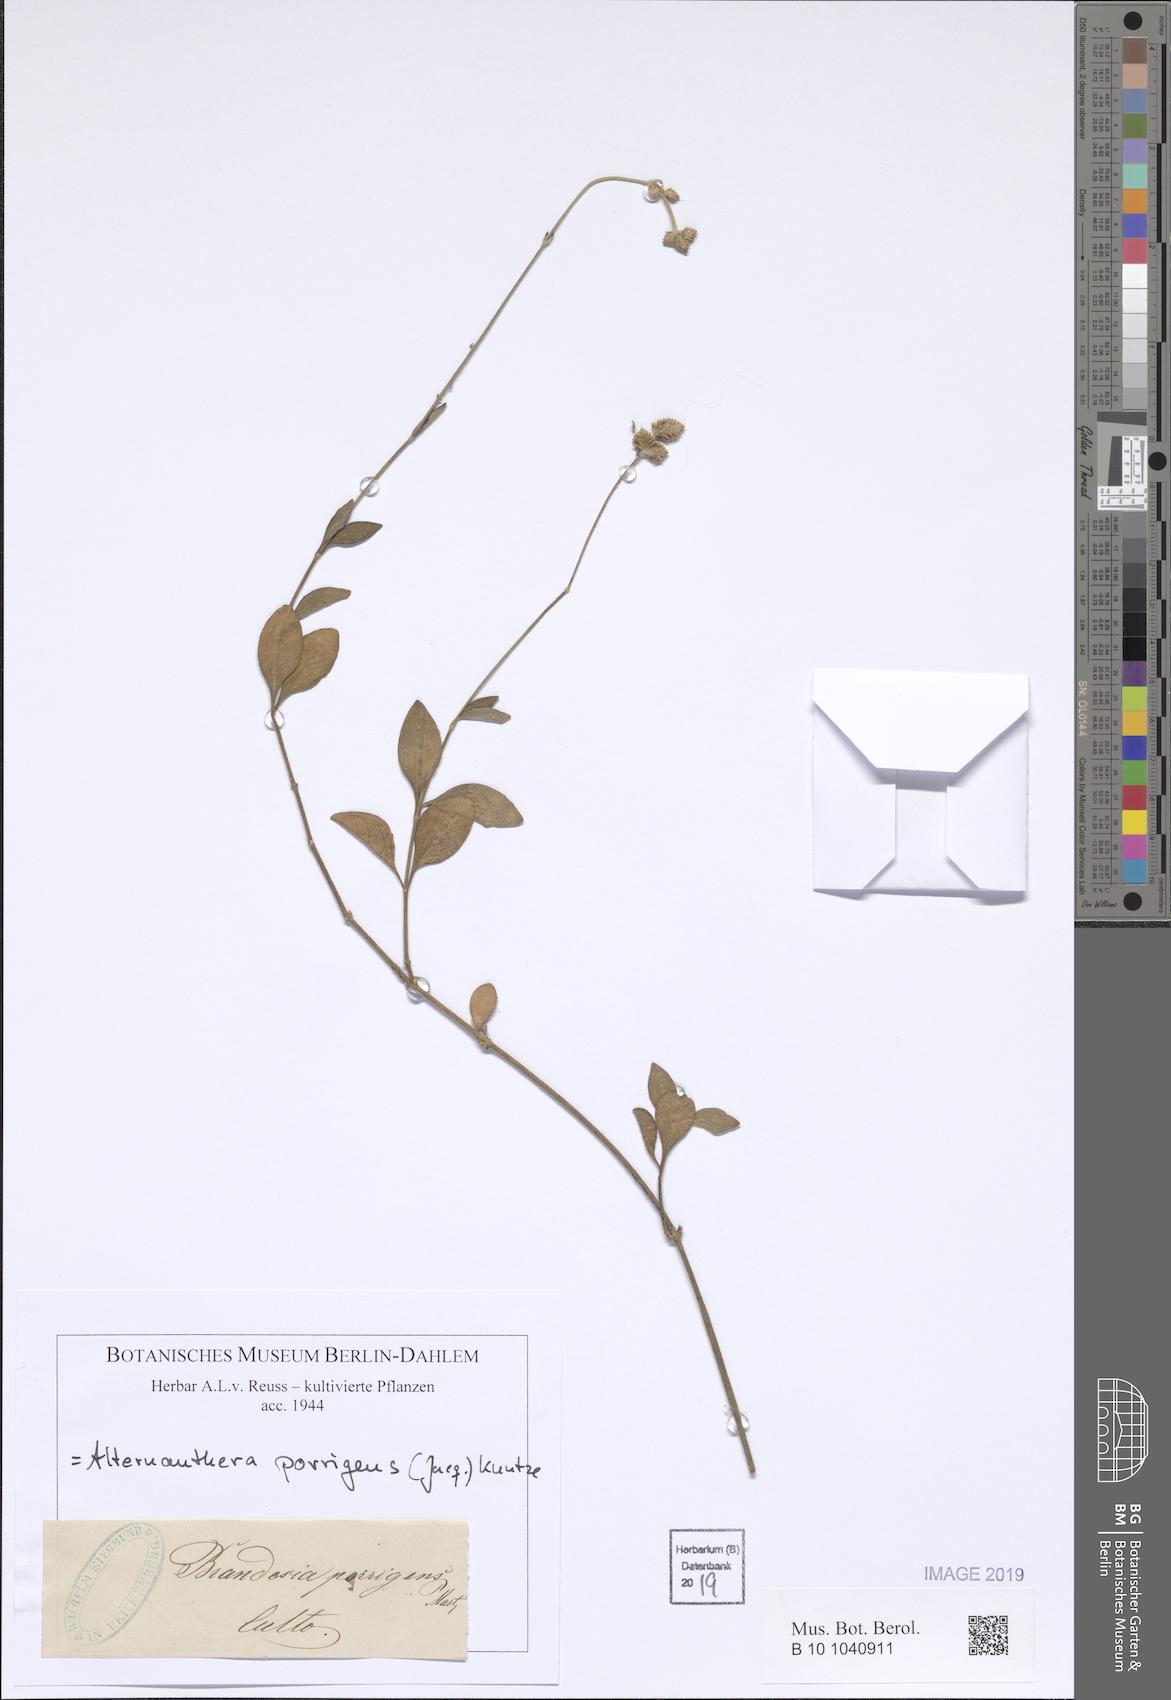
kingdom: Plantae
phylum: Tracheophyta
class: Magnoliopsida
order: Caryophyllales
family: Amaranthaceae
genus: Alternanthera
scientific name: Alternanthera porrigens
